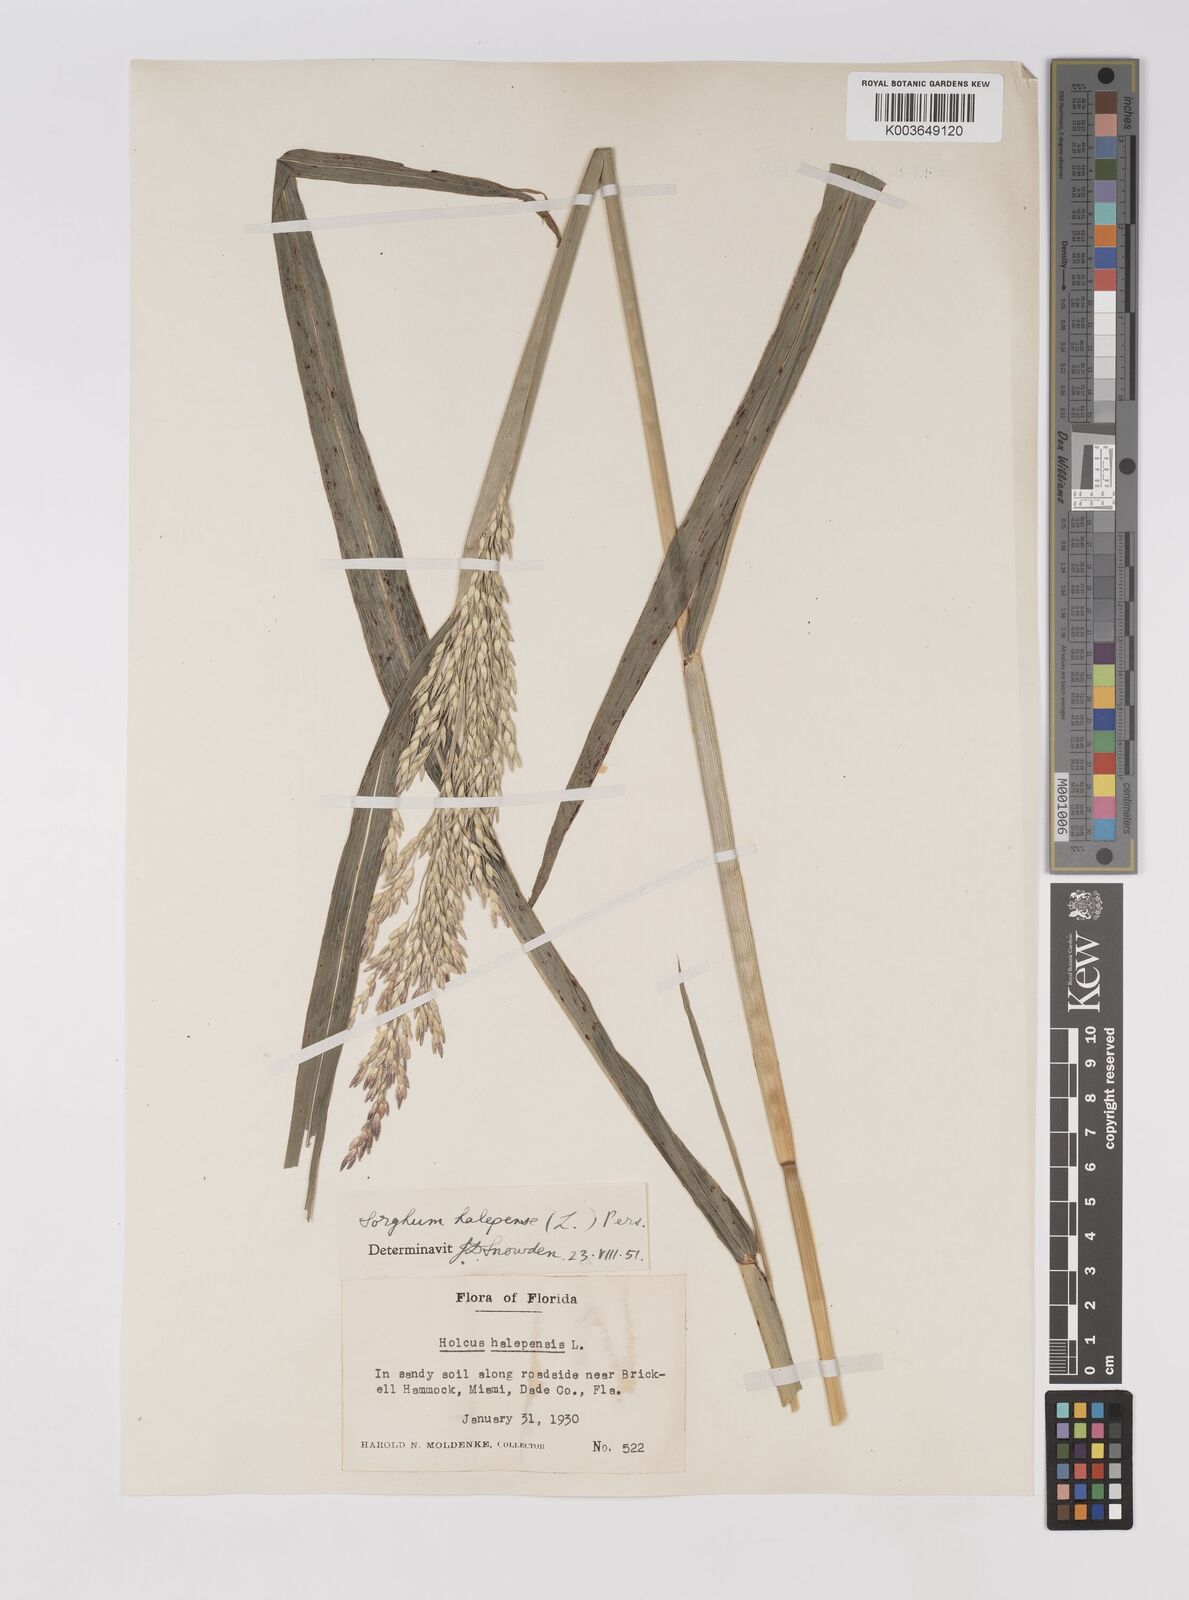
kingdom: Plantae
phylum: Tracheophyta
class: Liliopsida
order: Poales
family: Poaceae
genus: Sorghum
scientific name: Sorghum halepense
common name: Johnson-grass
